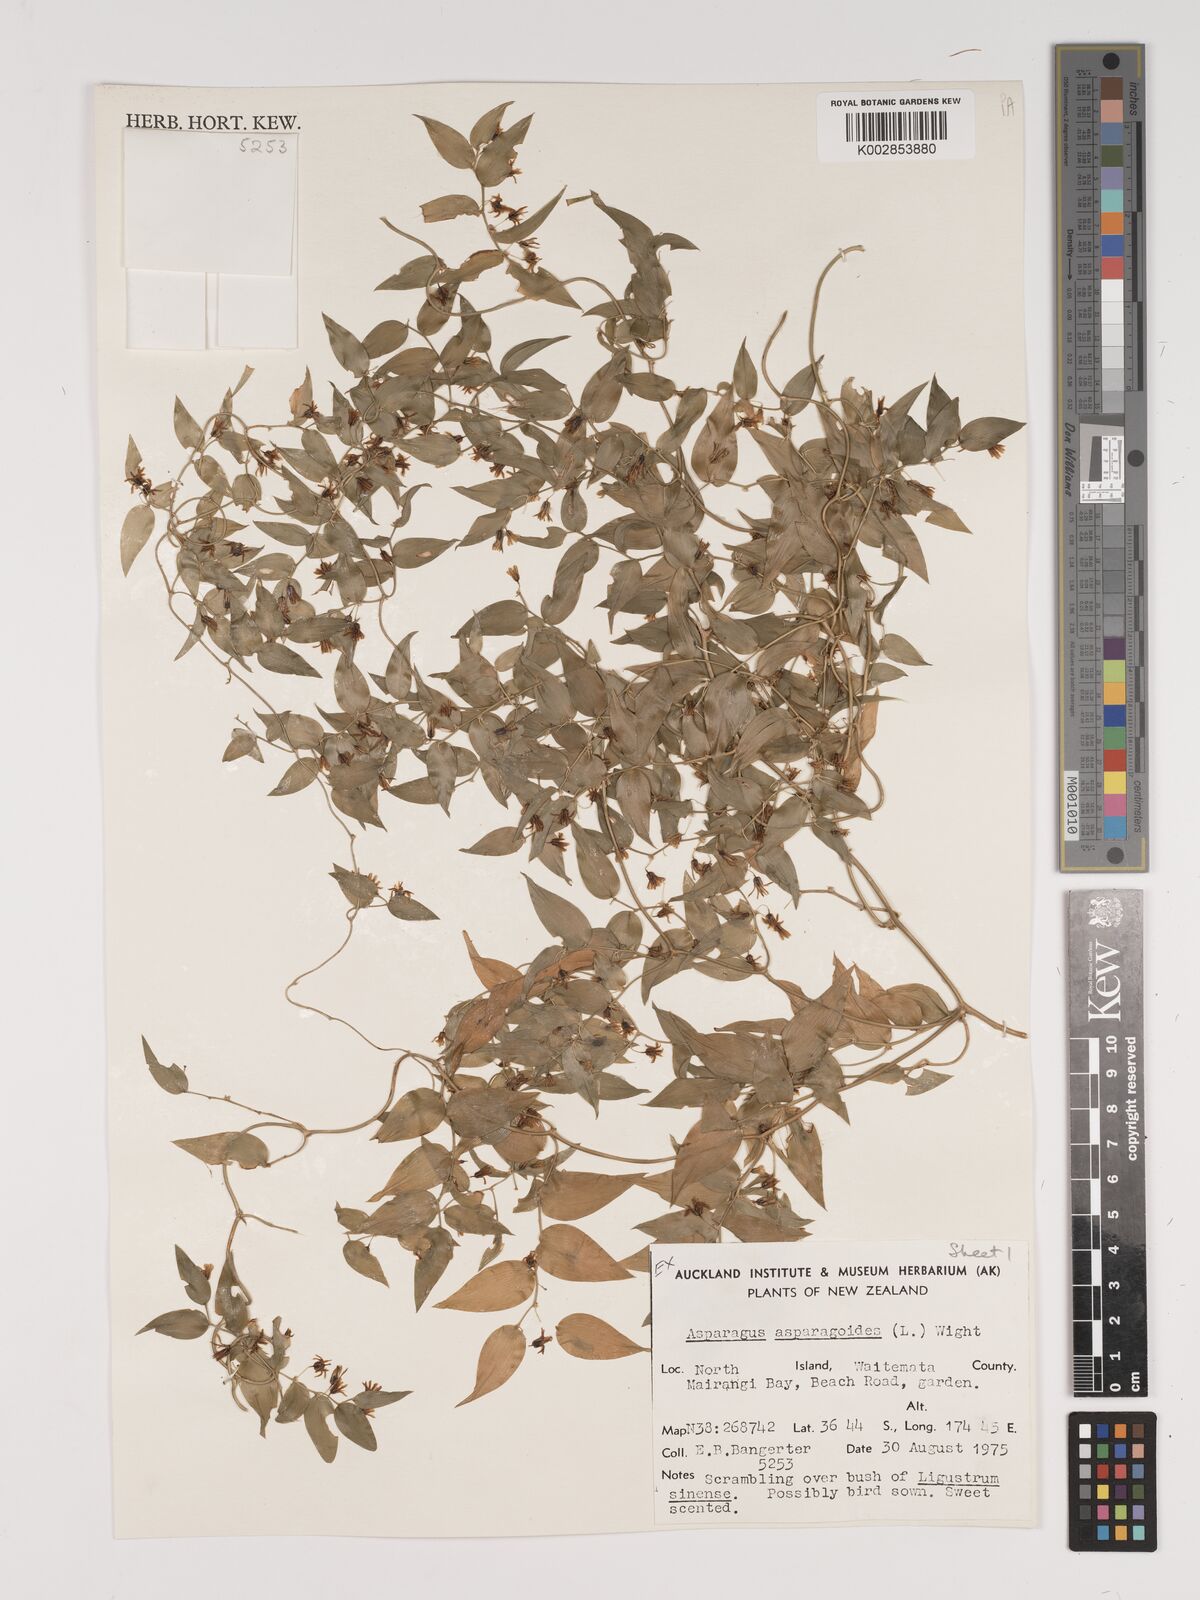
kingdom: Plantae
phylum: Tracheophyta
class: Liliopsida
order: Asparagales
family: Asparagaceae
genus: Asparagus
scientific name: Asparagus asparagoides
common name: African asparagus fern
